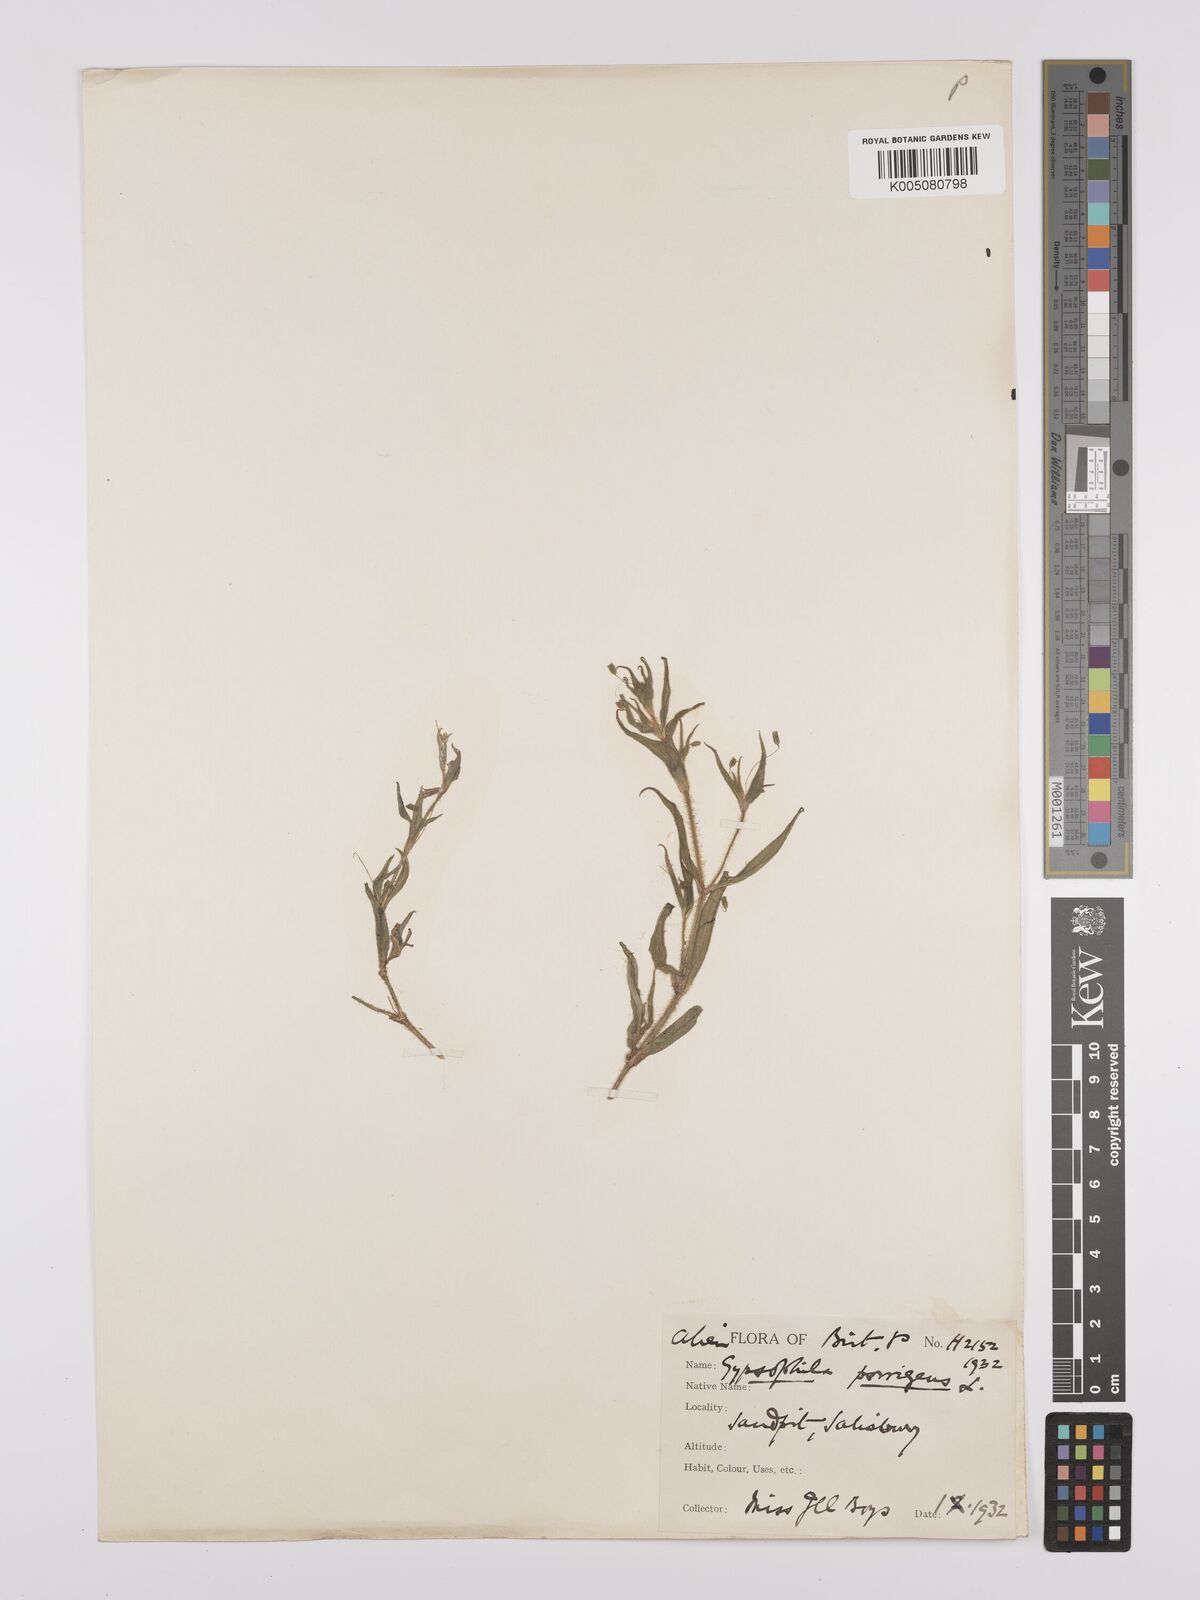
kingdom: Plantae
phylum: Tracheophyta
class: Magnoliopsida
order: Caryophyllales
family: Caryophyllaceae
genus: Gypsophila
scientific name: Gypsophila pilosa
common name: Turkish baby's-breath
